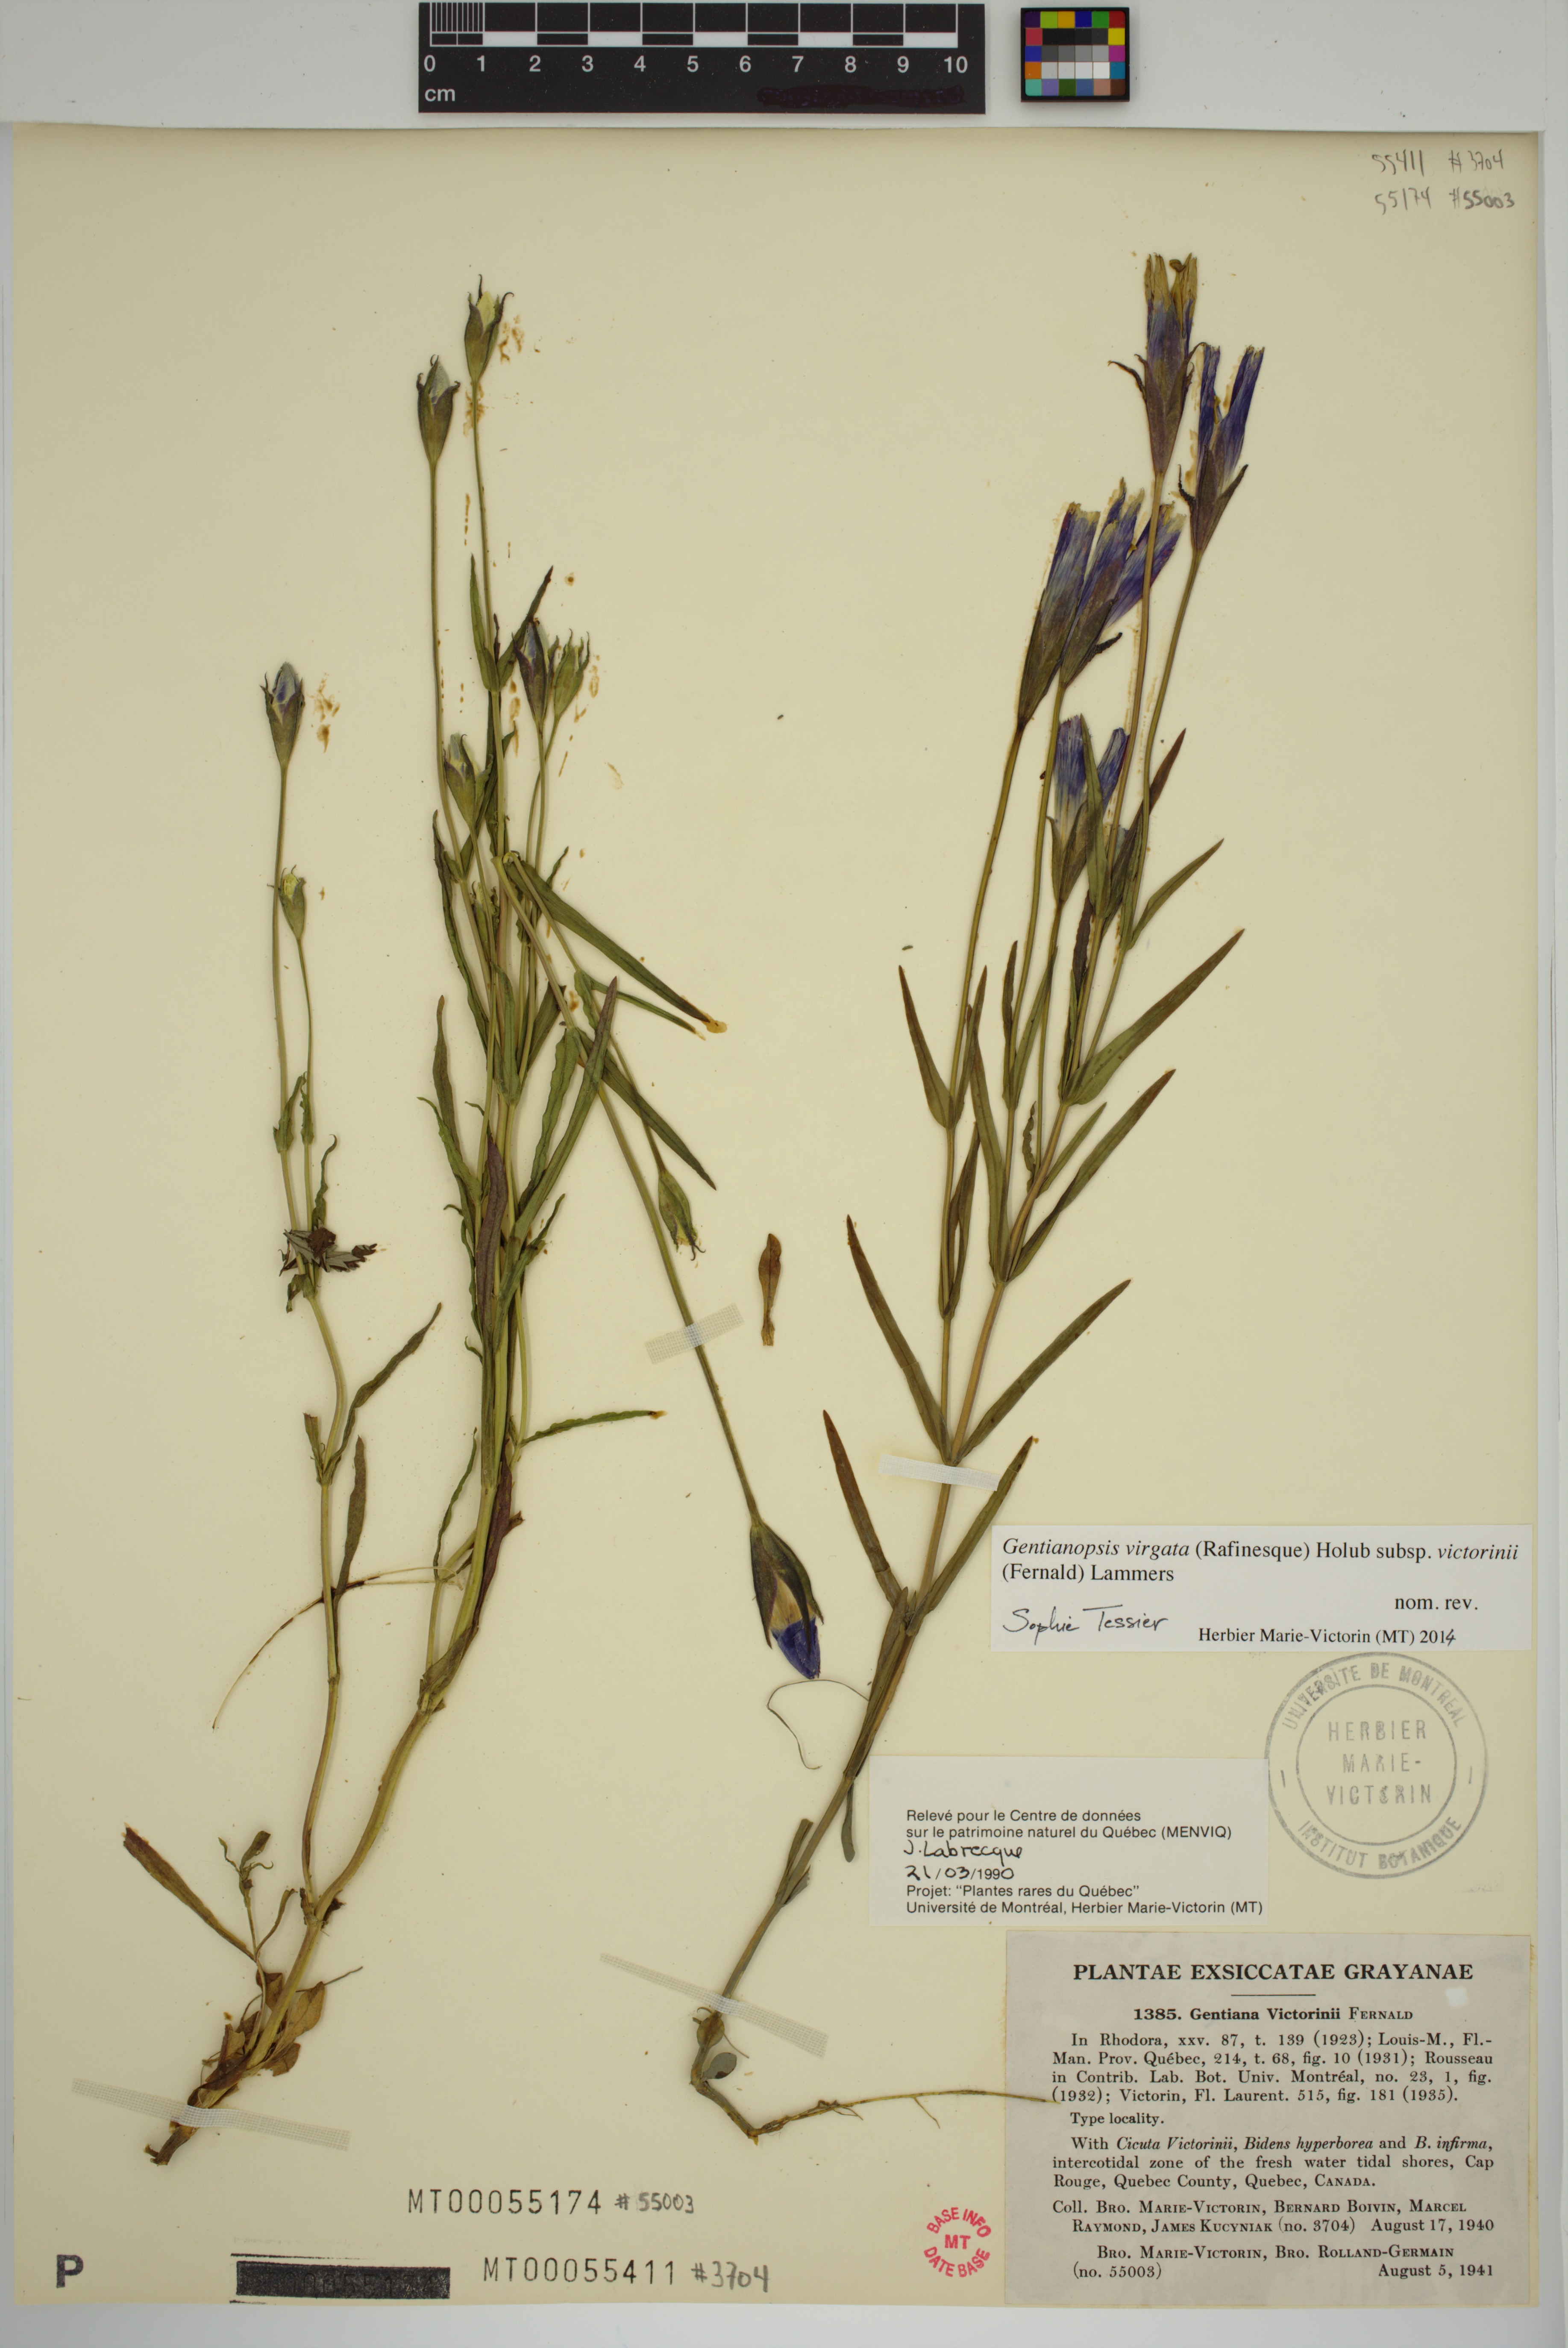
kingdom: Plantae
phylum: Tracheophyta
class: Magnoliopsida
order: Gentianales
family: Gentianaceae
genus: Gentianopsis
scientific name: Gentianopsis victorinii
